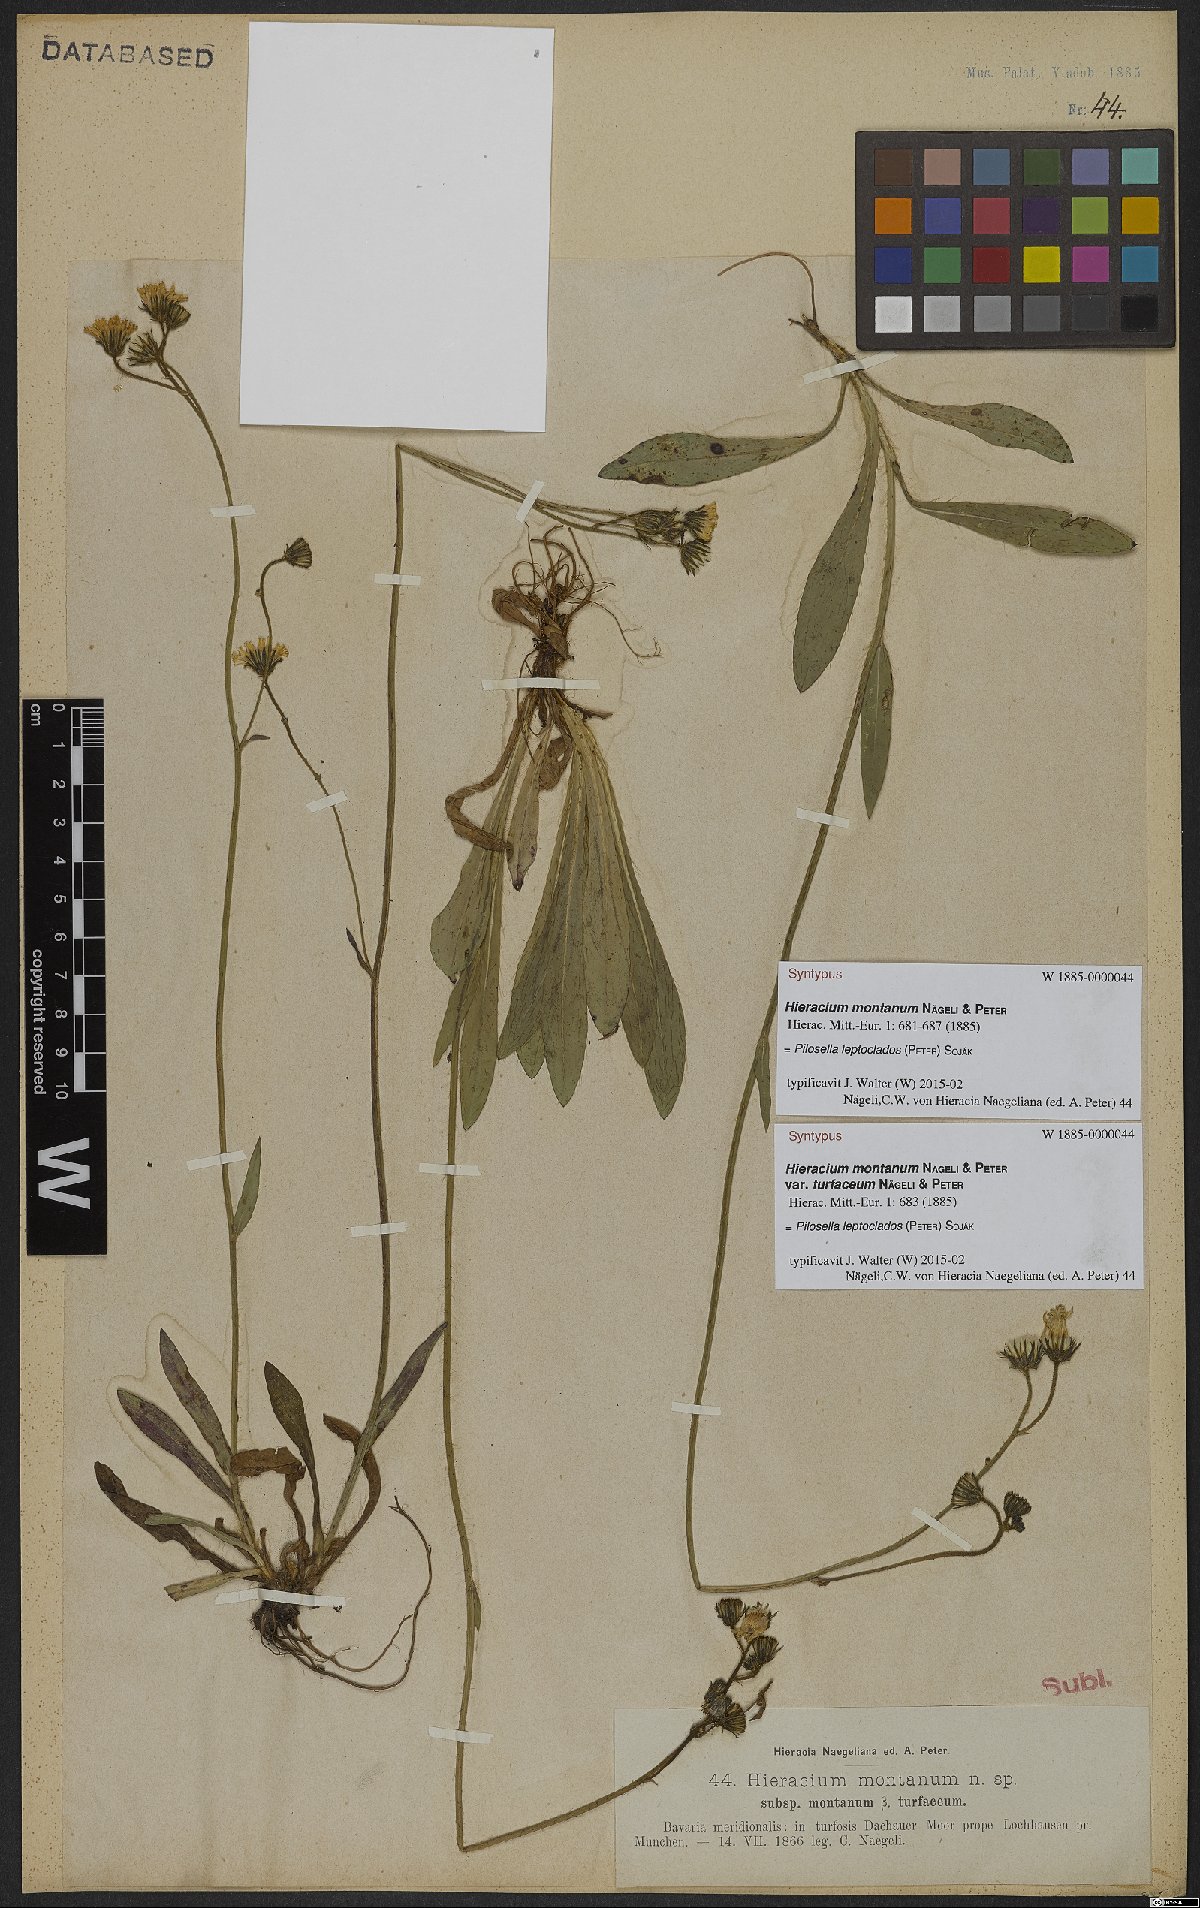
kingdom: Plantae
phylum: Tracheophyta
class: Magnoliopsida
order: Asterales
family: Asteraceae
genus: Pilosella
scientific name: Pilosella leptoclados
